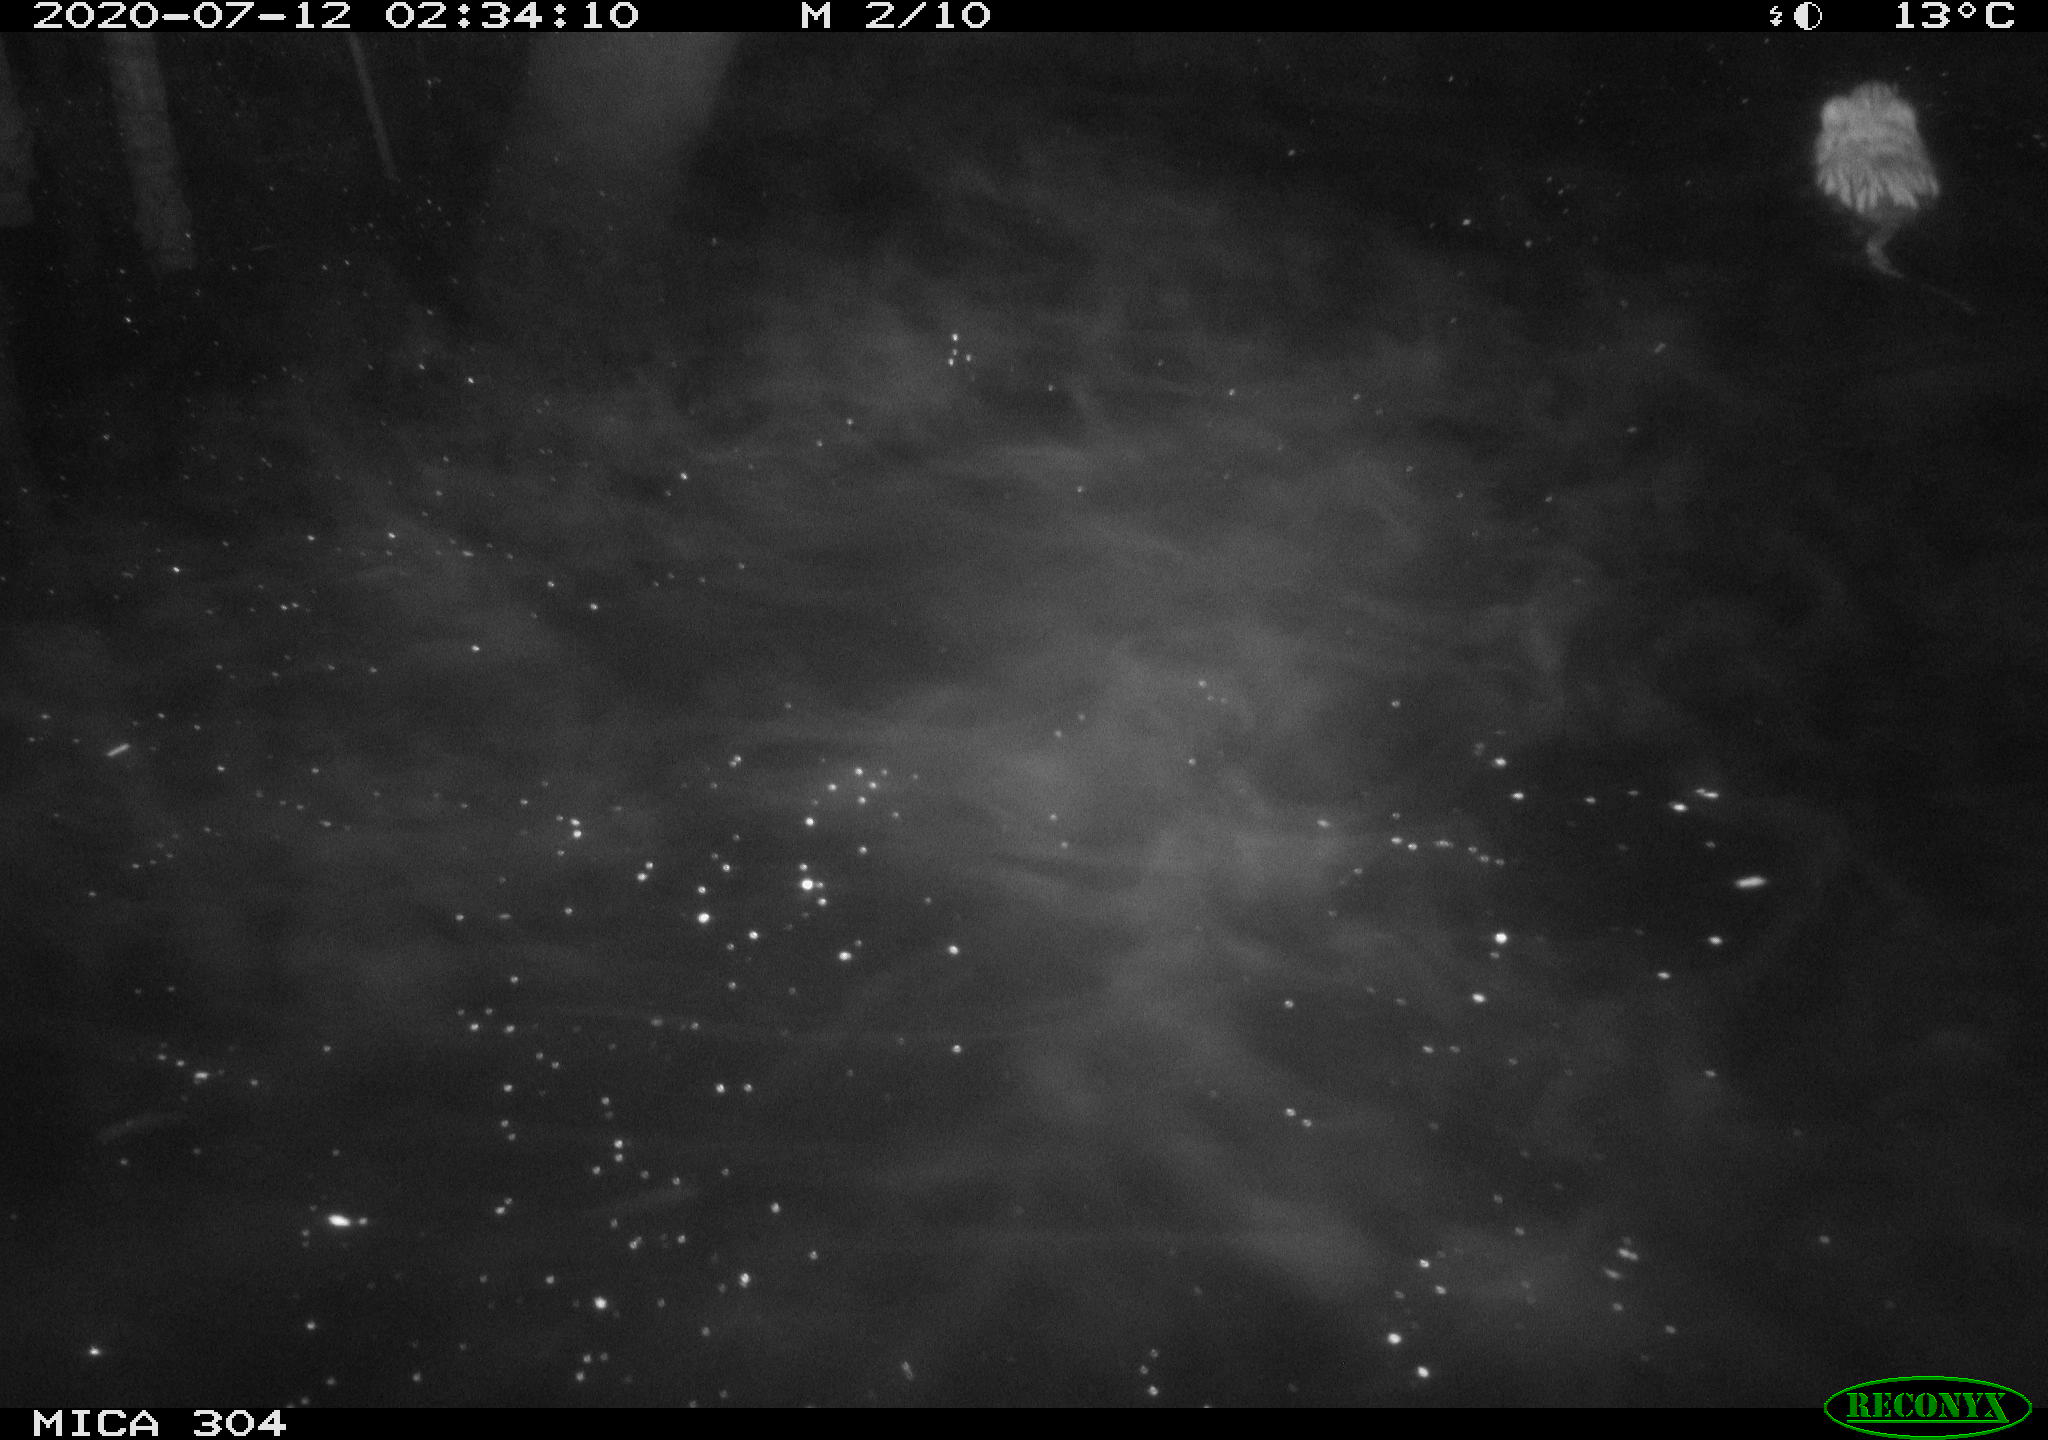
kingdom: Animalia
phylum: Chordata
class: Mammalia
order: Rodentia
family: Cricetidae
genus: Ondatra
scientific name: Ondatra zibethicus
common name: Muskrat
